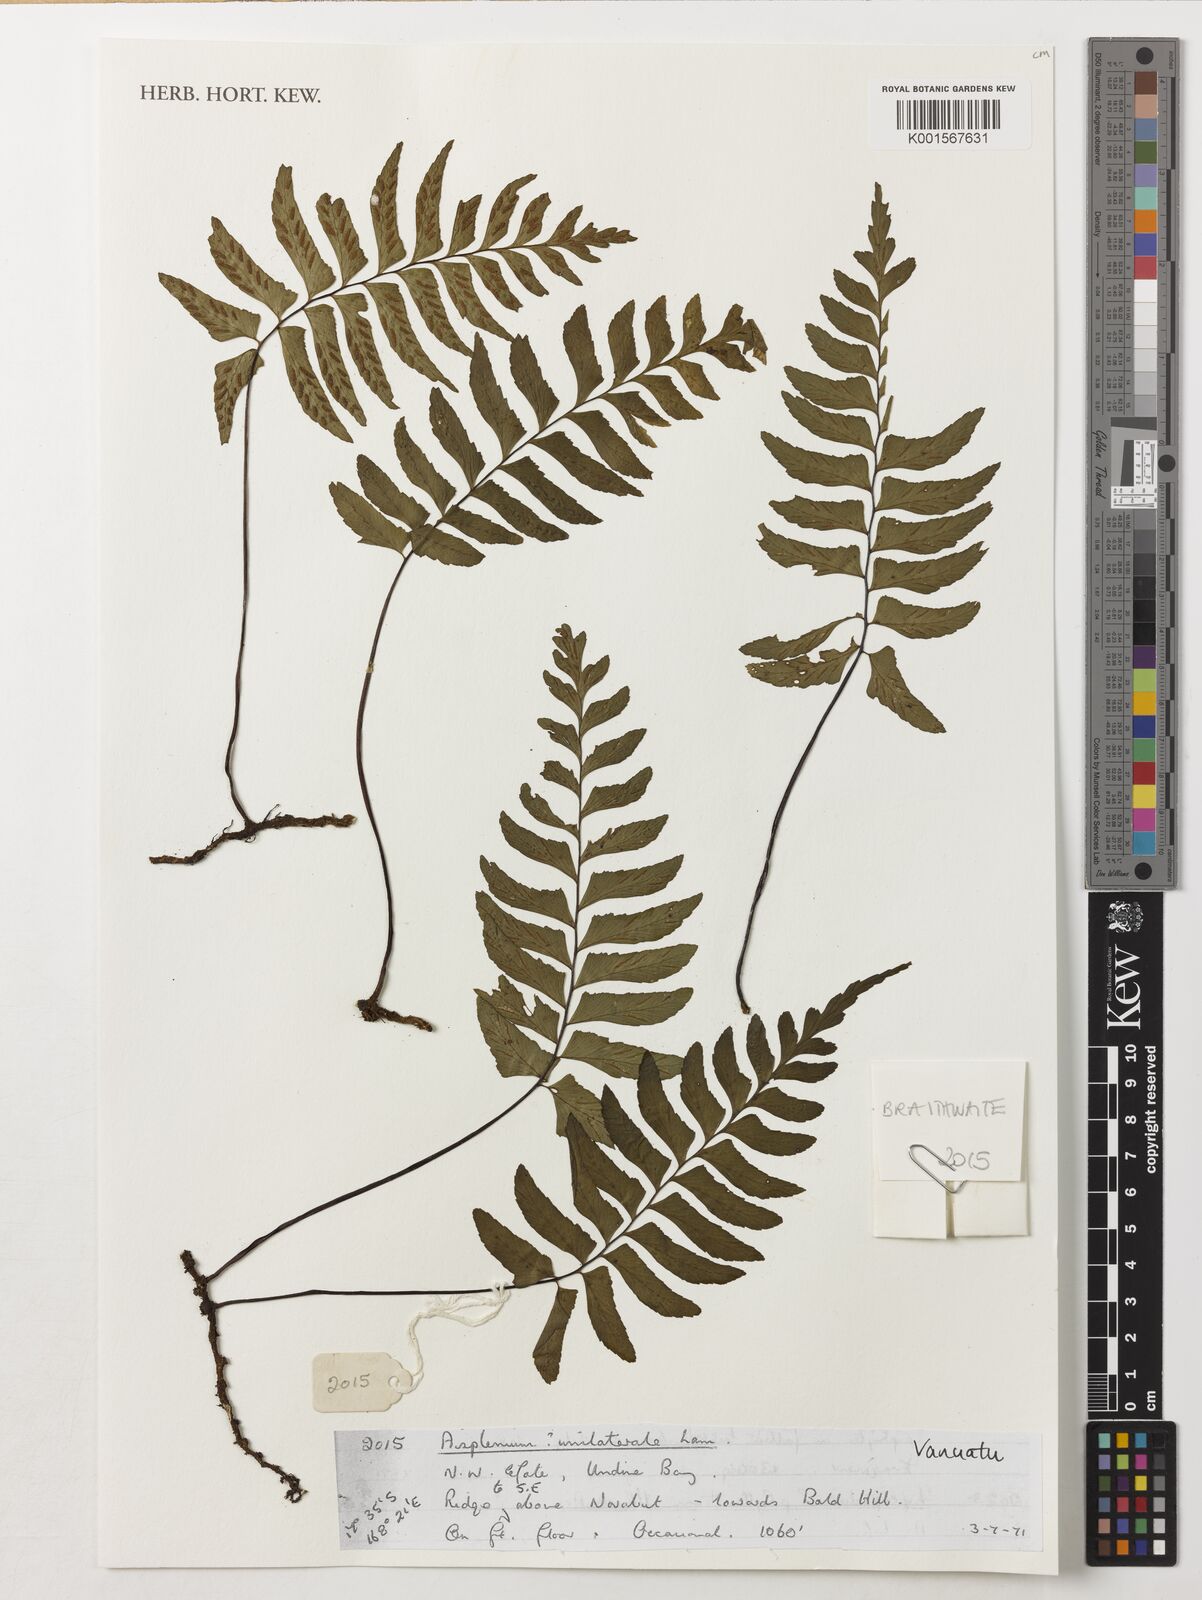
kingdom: Plantae
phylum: Tracheophyta
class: Polypodiopsida
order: Polypodiales
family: Aspleniaceae
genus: Hymenasplenium
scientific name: Hymenasplenium unilaterale
